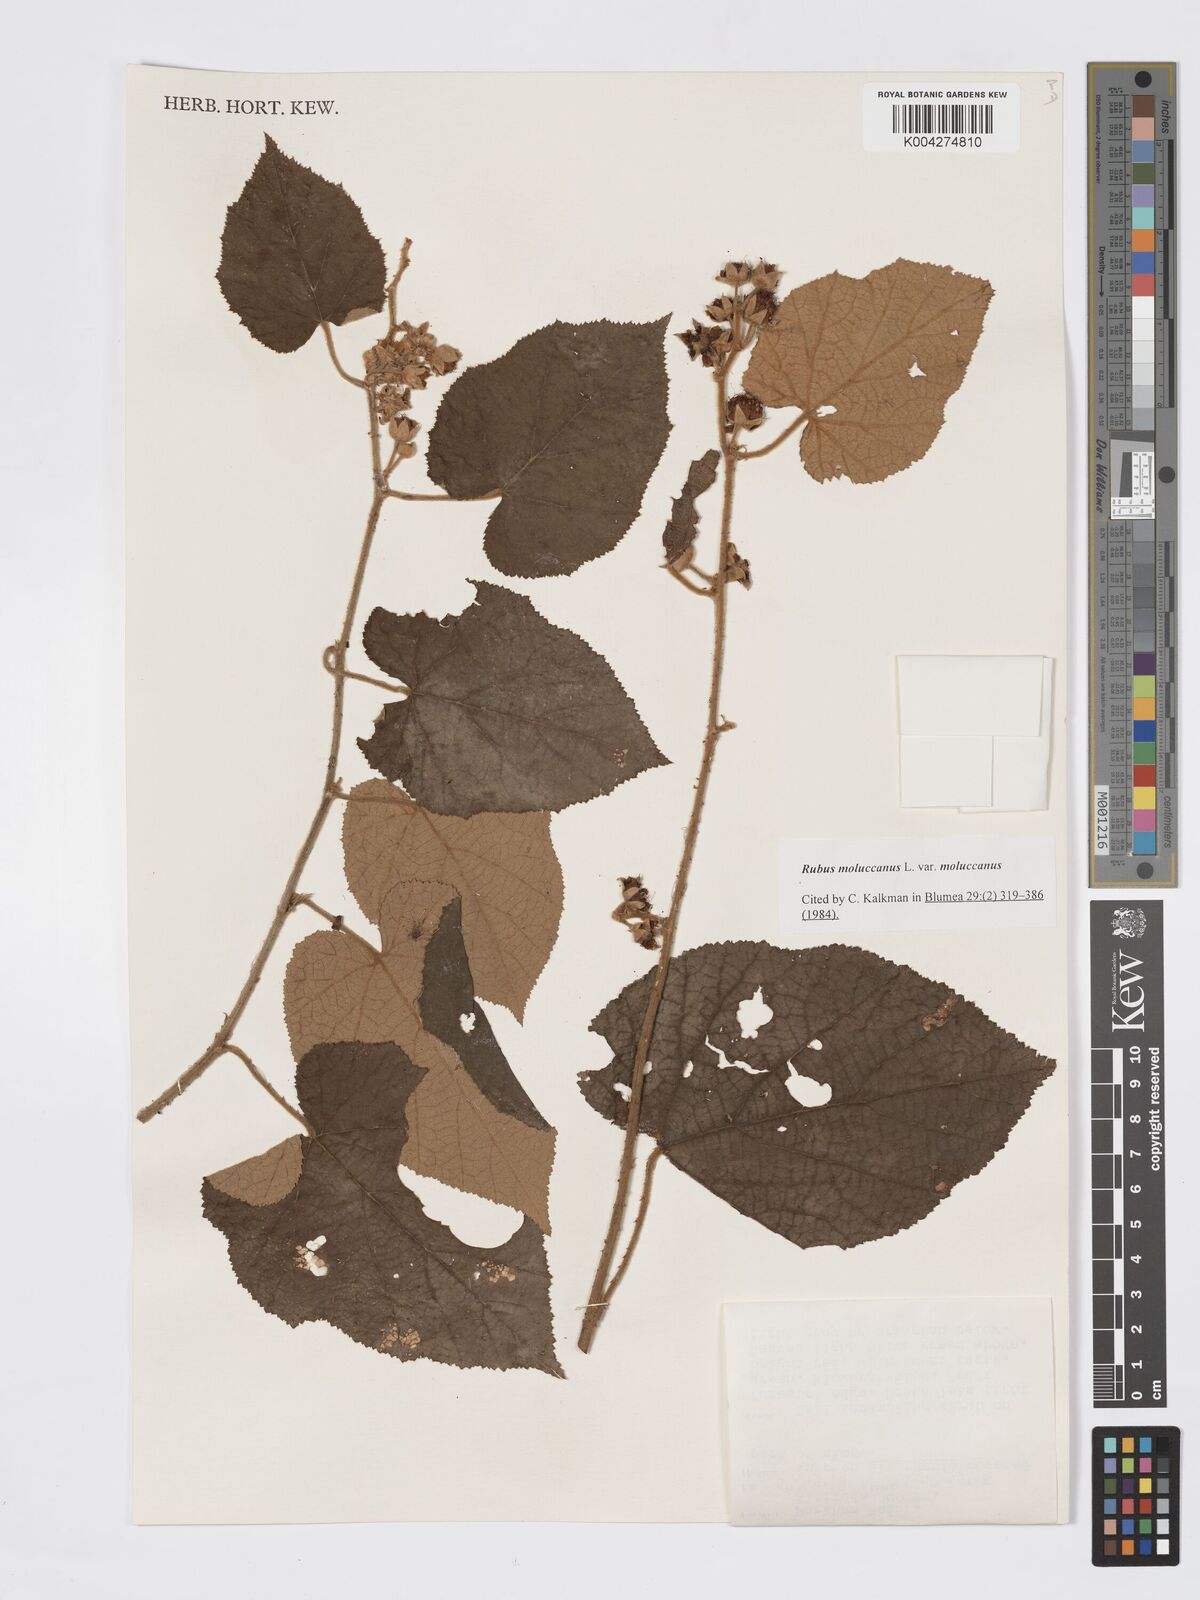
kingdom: Plantae
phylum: Tracheophyta
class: Magnoliopsida
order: Rosales
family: Rosaceae
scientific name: Rosaceae
